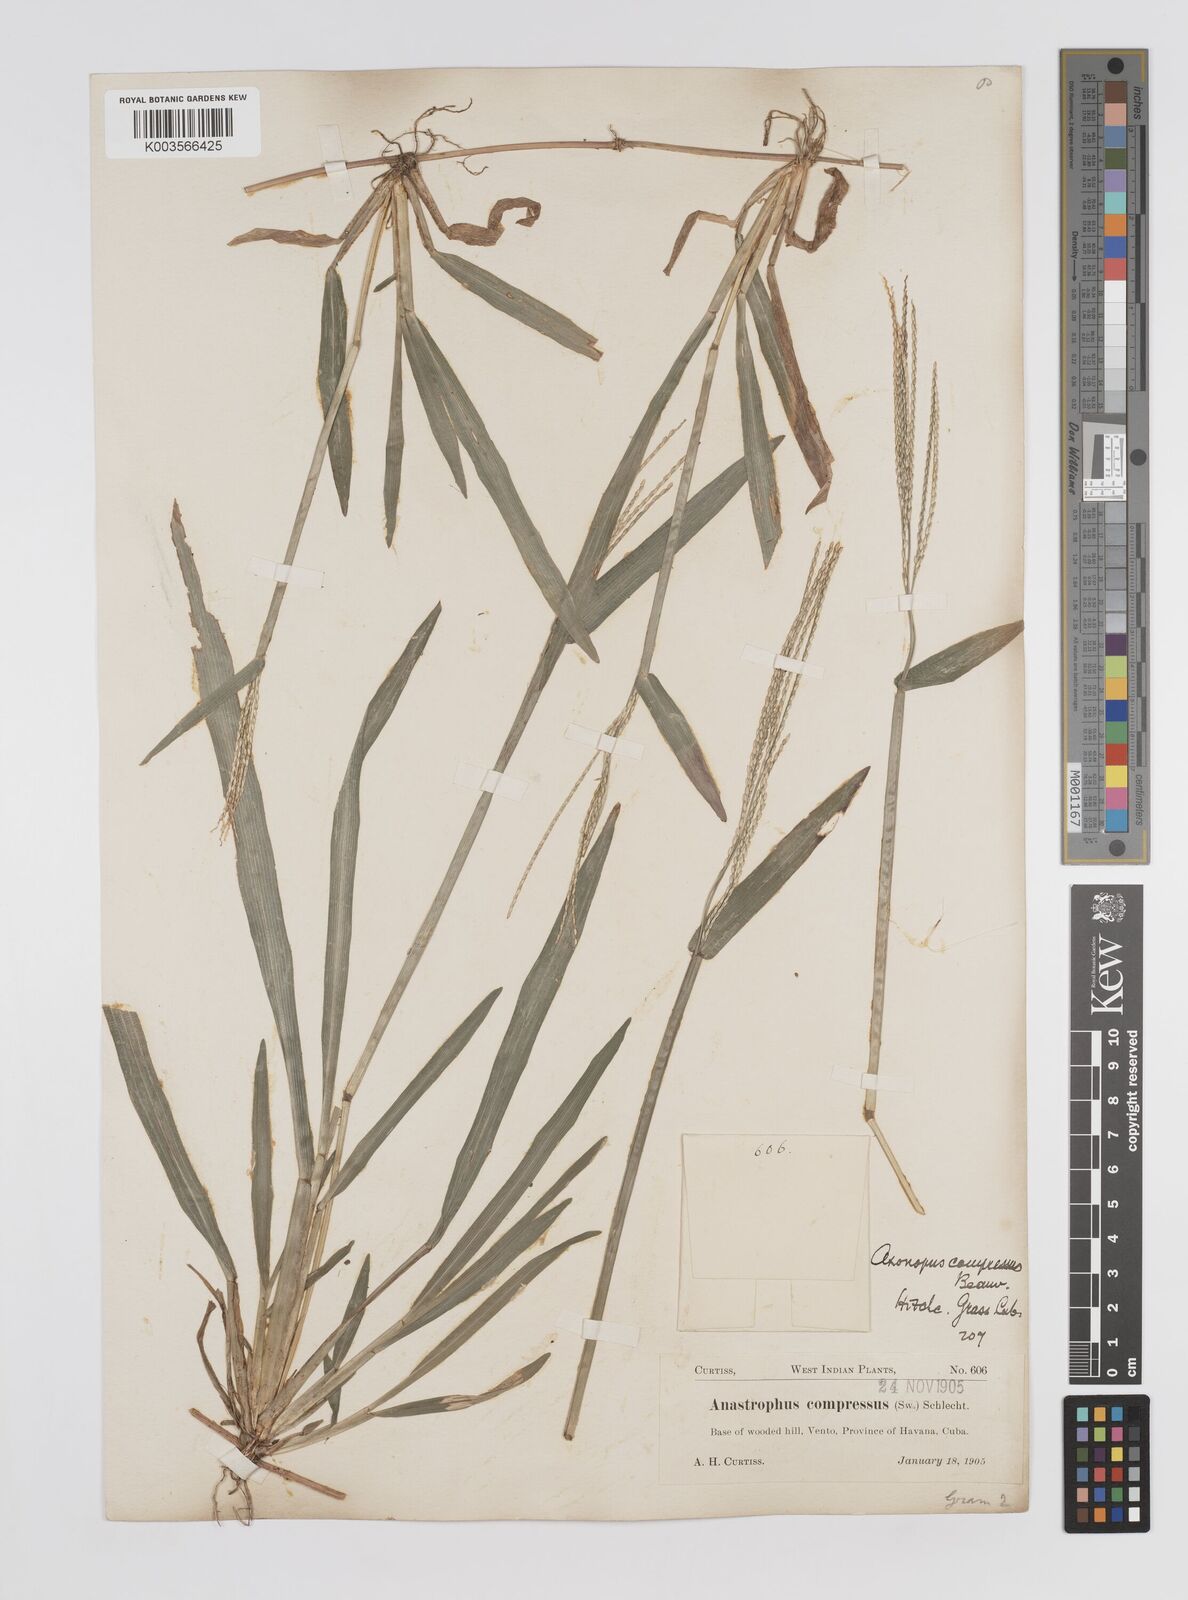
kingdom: Plantae
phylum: Tracheophyta
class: Liliopsida
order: Poales
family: Poaceae
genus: Axonopus
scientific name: Axonopus compressus
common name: American carpet grass
